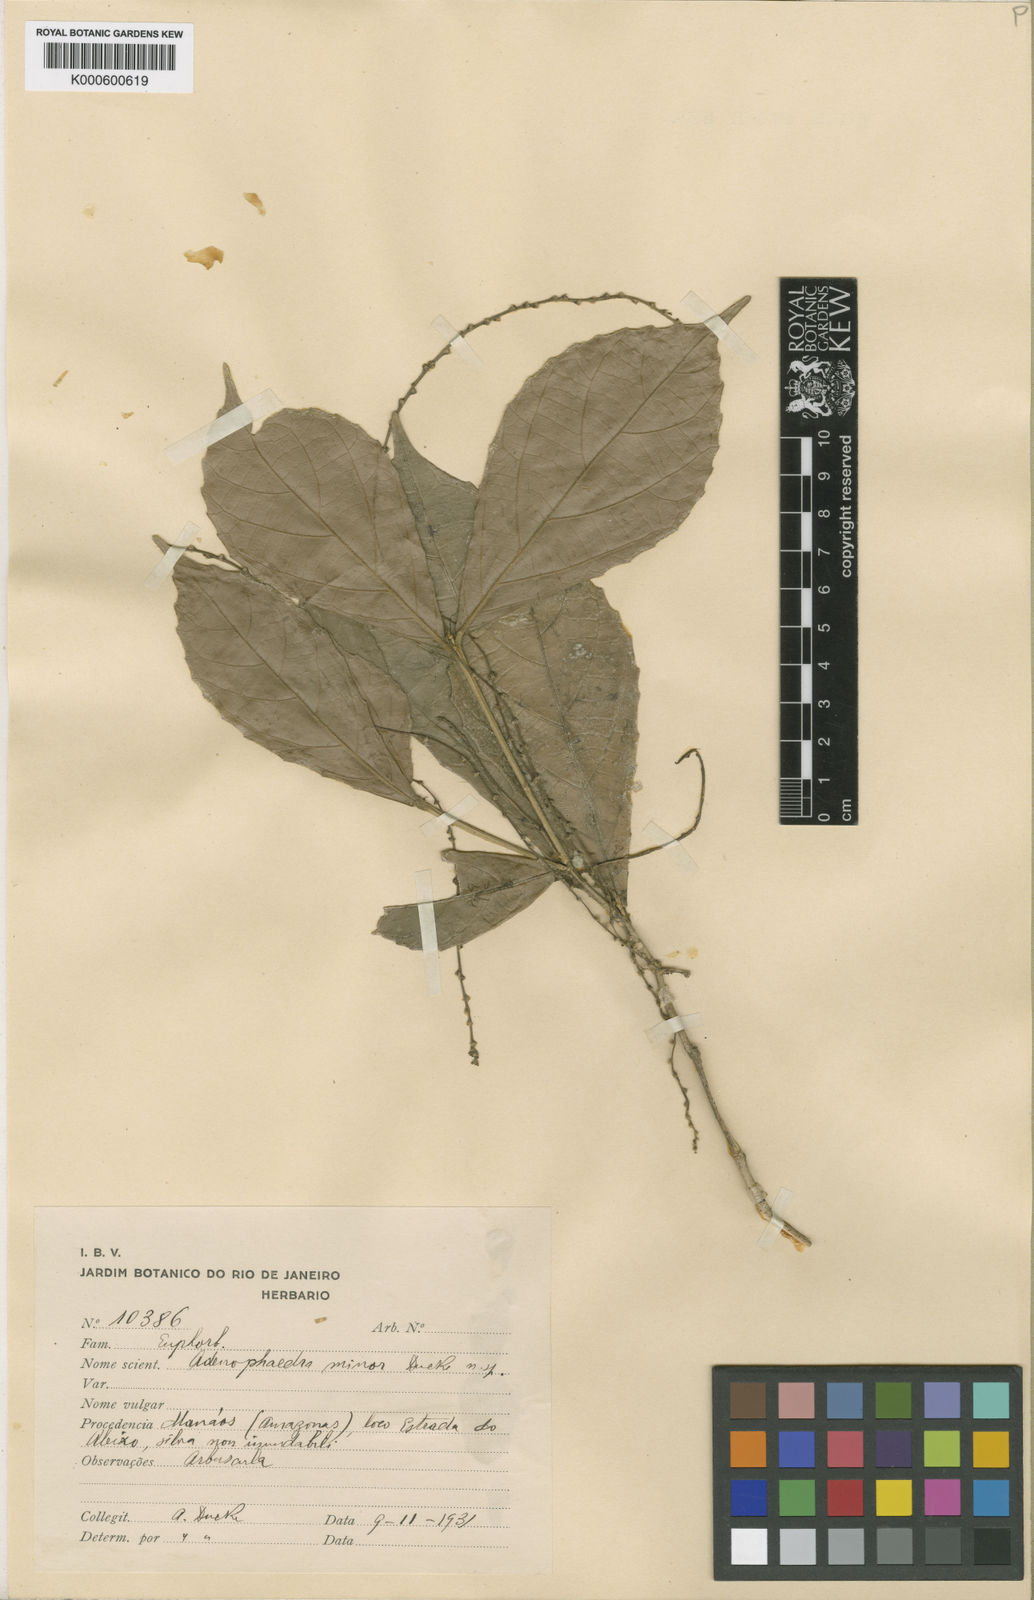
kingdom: Plantae
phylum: Tracheophyta
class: Magnoliopsida
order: Malpighiales
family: Euphorbiaceae
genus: Tetrorchidium
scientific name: Tetrorchidium duckei
